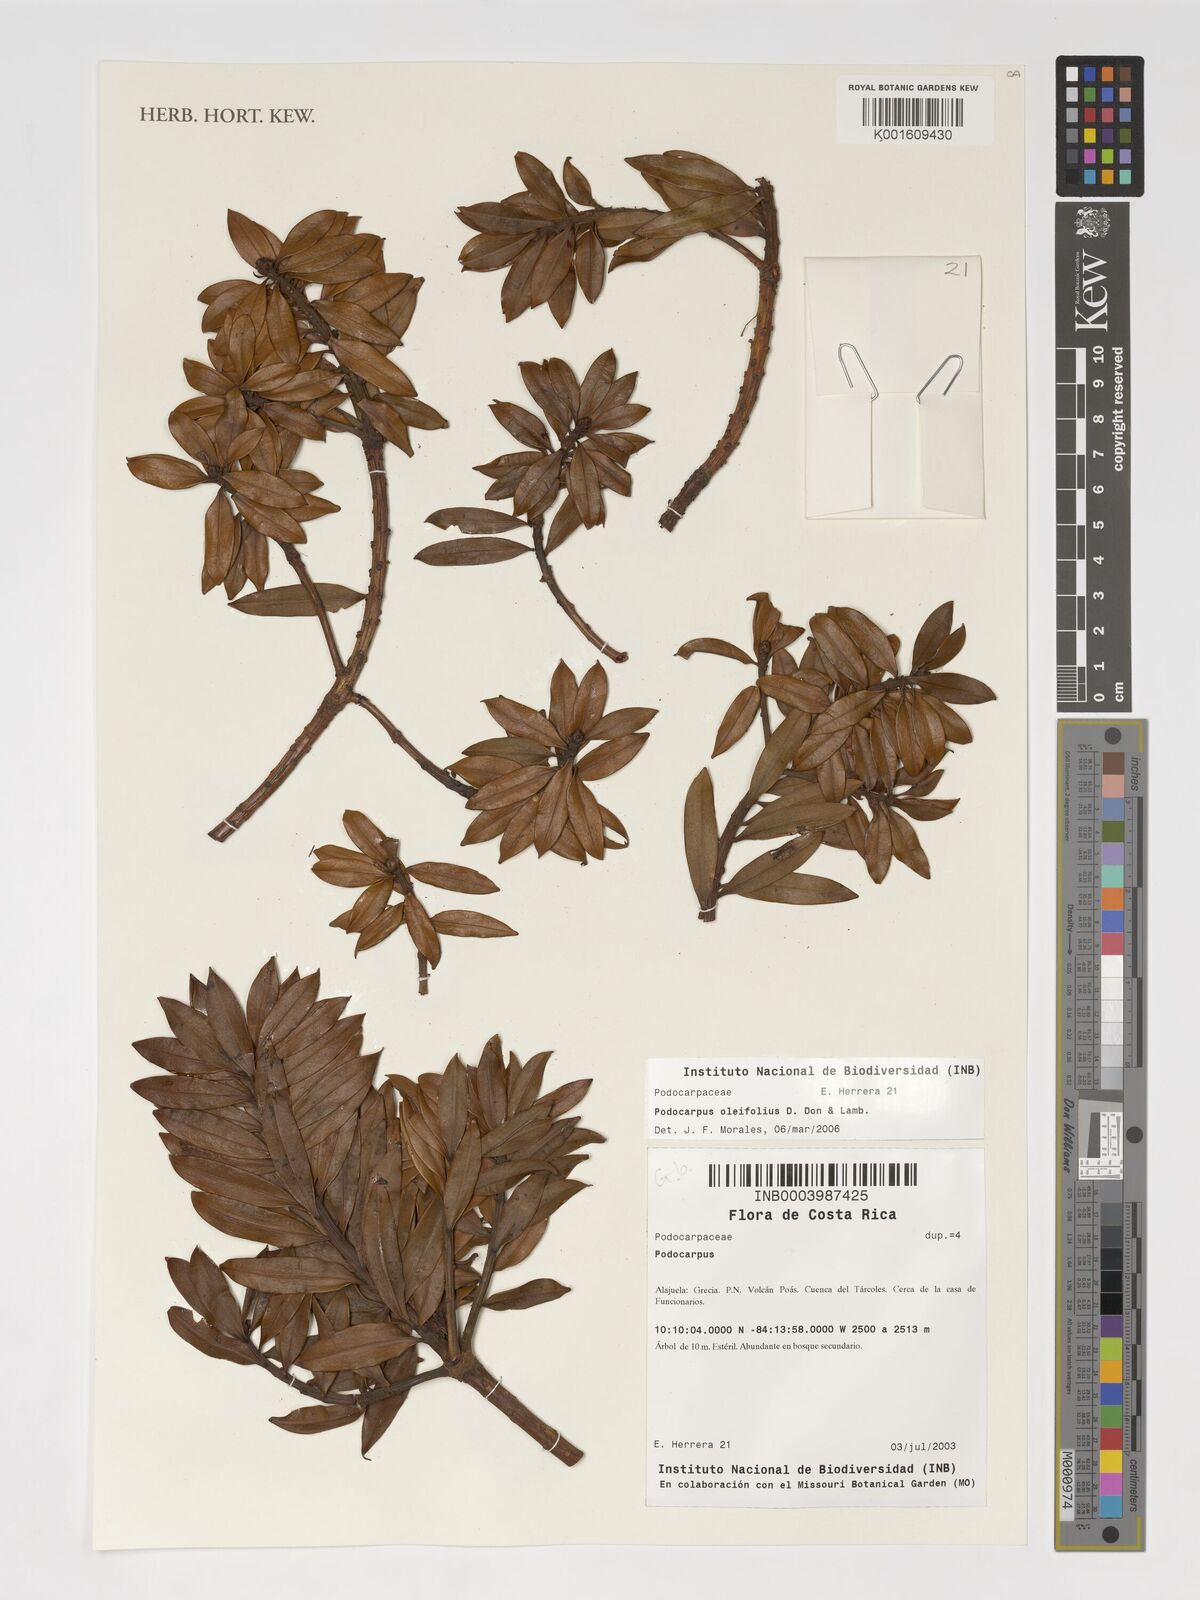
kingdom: Plantae
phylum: Tracheophyta
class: Pinopsida
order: Pinales
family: Podocarpaceae
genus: Podocarpus
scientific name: Podocarpus oleifolius
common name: Olive-leaf podoberry
